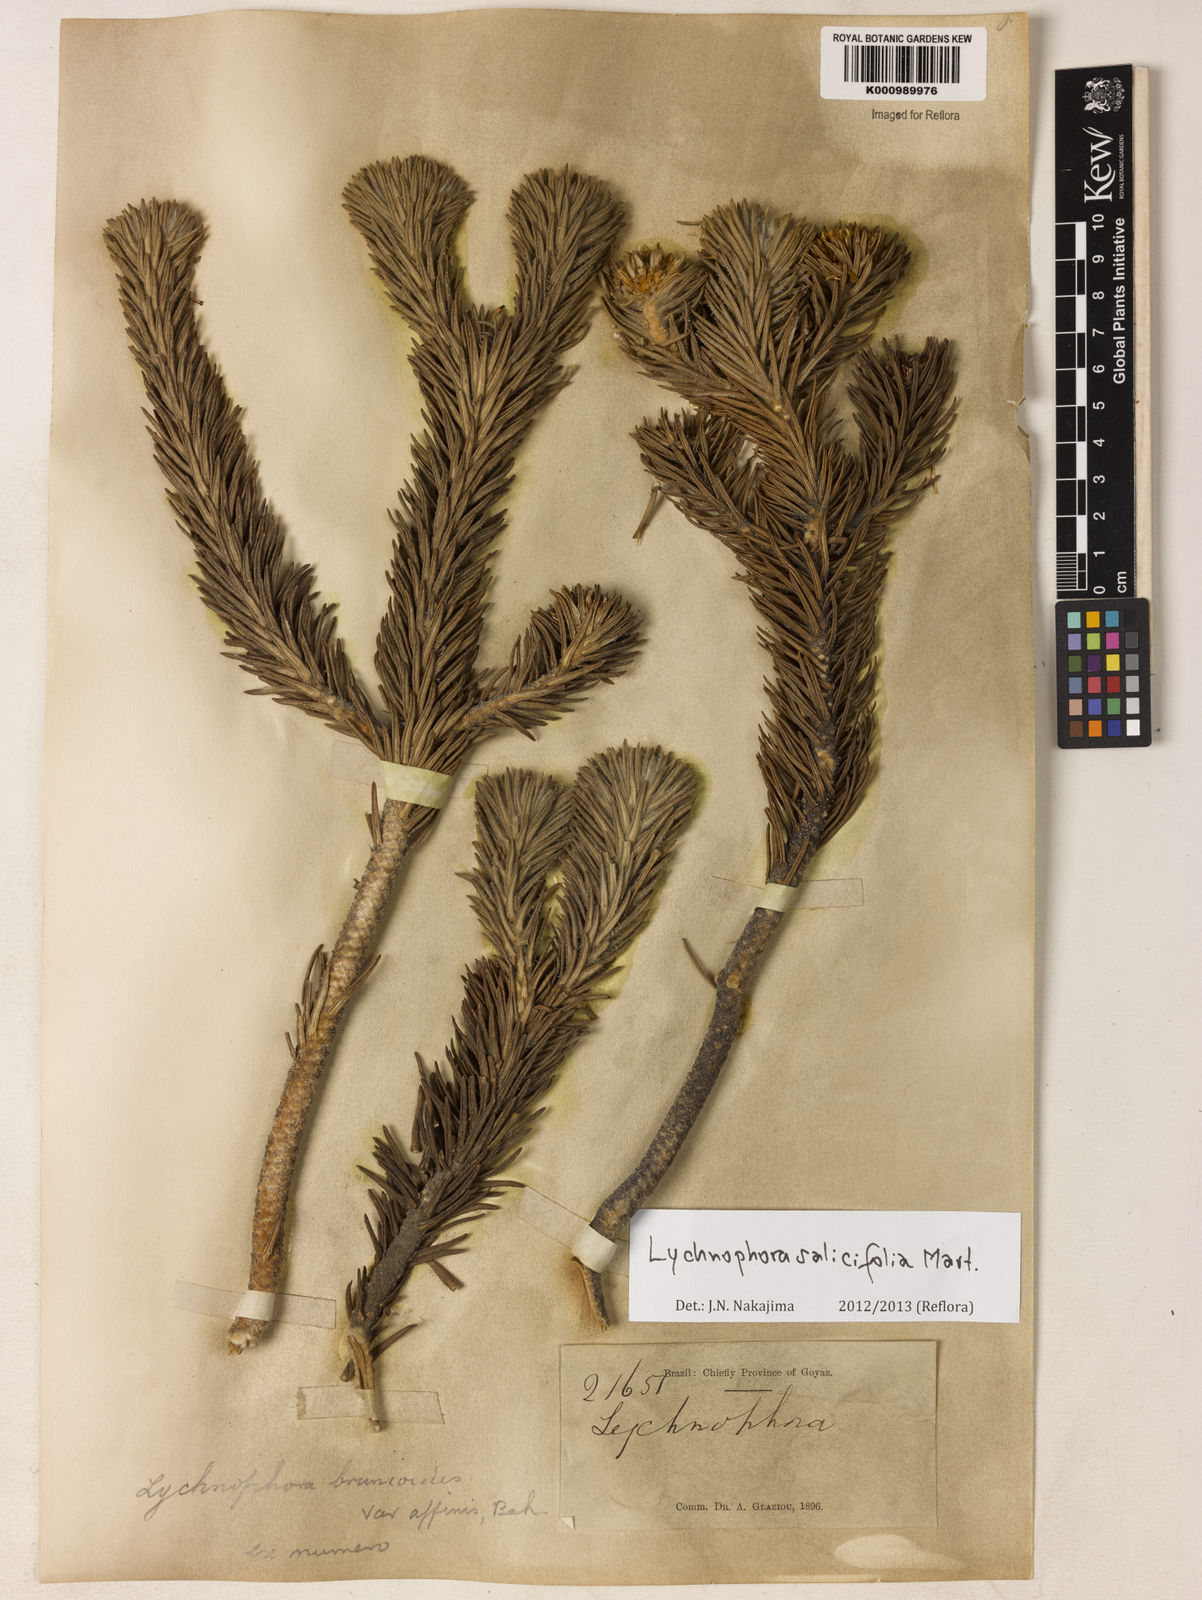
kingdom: Plantae
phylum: Tracheophyta
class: Magnoliopsida
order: Asterales
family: Asteraceae
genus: Lychnophora
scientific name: Lychnophora salicifolia
